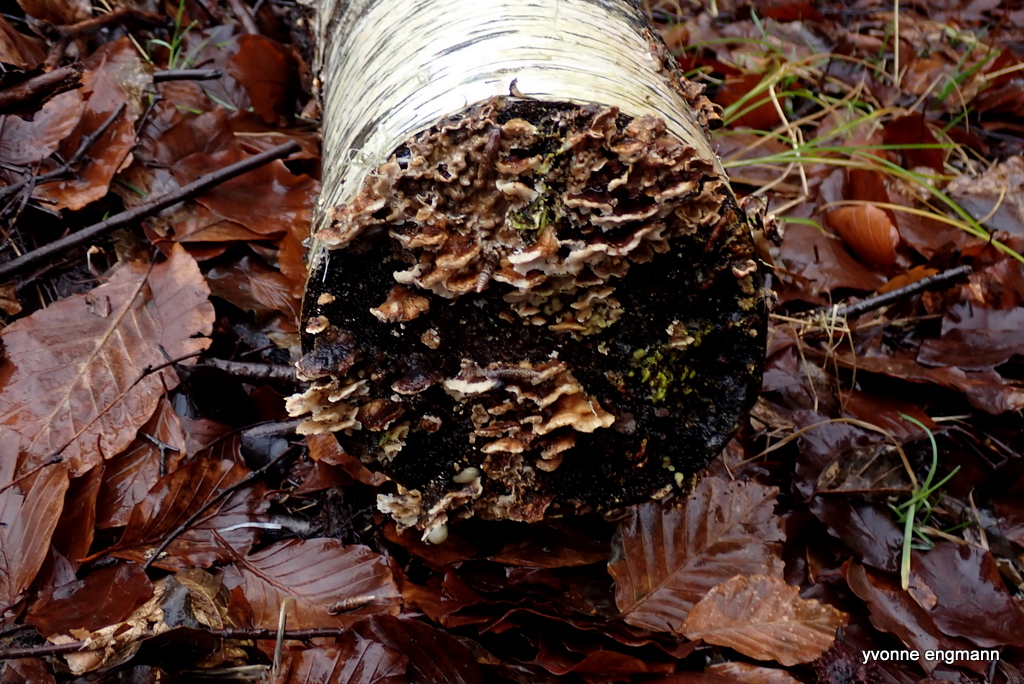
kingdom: Fungi
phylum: Basidiomycota
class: Agaricomycetes
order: Polyporales
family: Polyporaceae
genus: Trametes
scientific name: Trametes versicolor
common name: broget læderporesvamp
